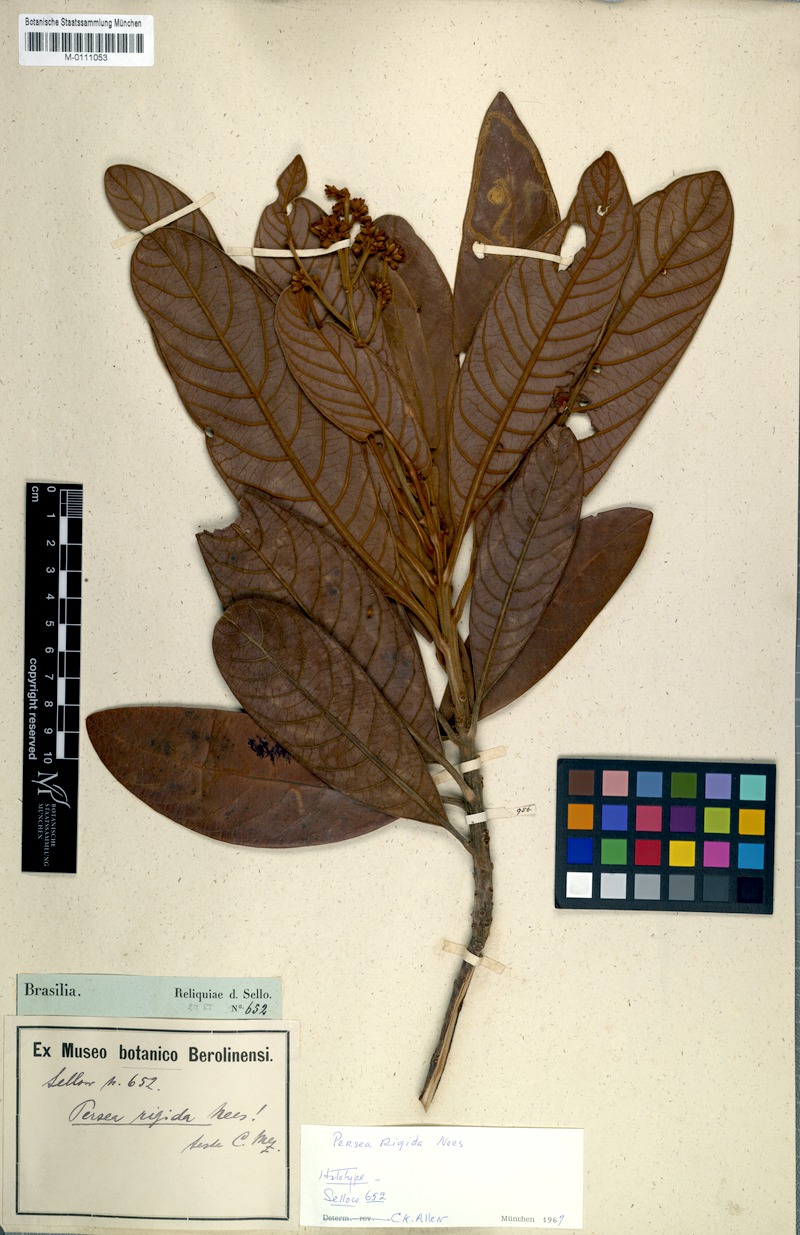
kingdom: Plantae
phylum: Tracheophyta
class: Magnoliopsida
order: Laurales
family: Lauraceae
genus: Persea
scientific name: Persea rigida
